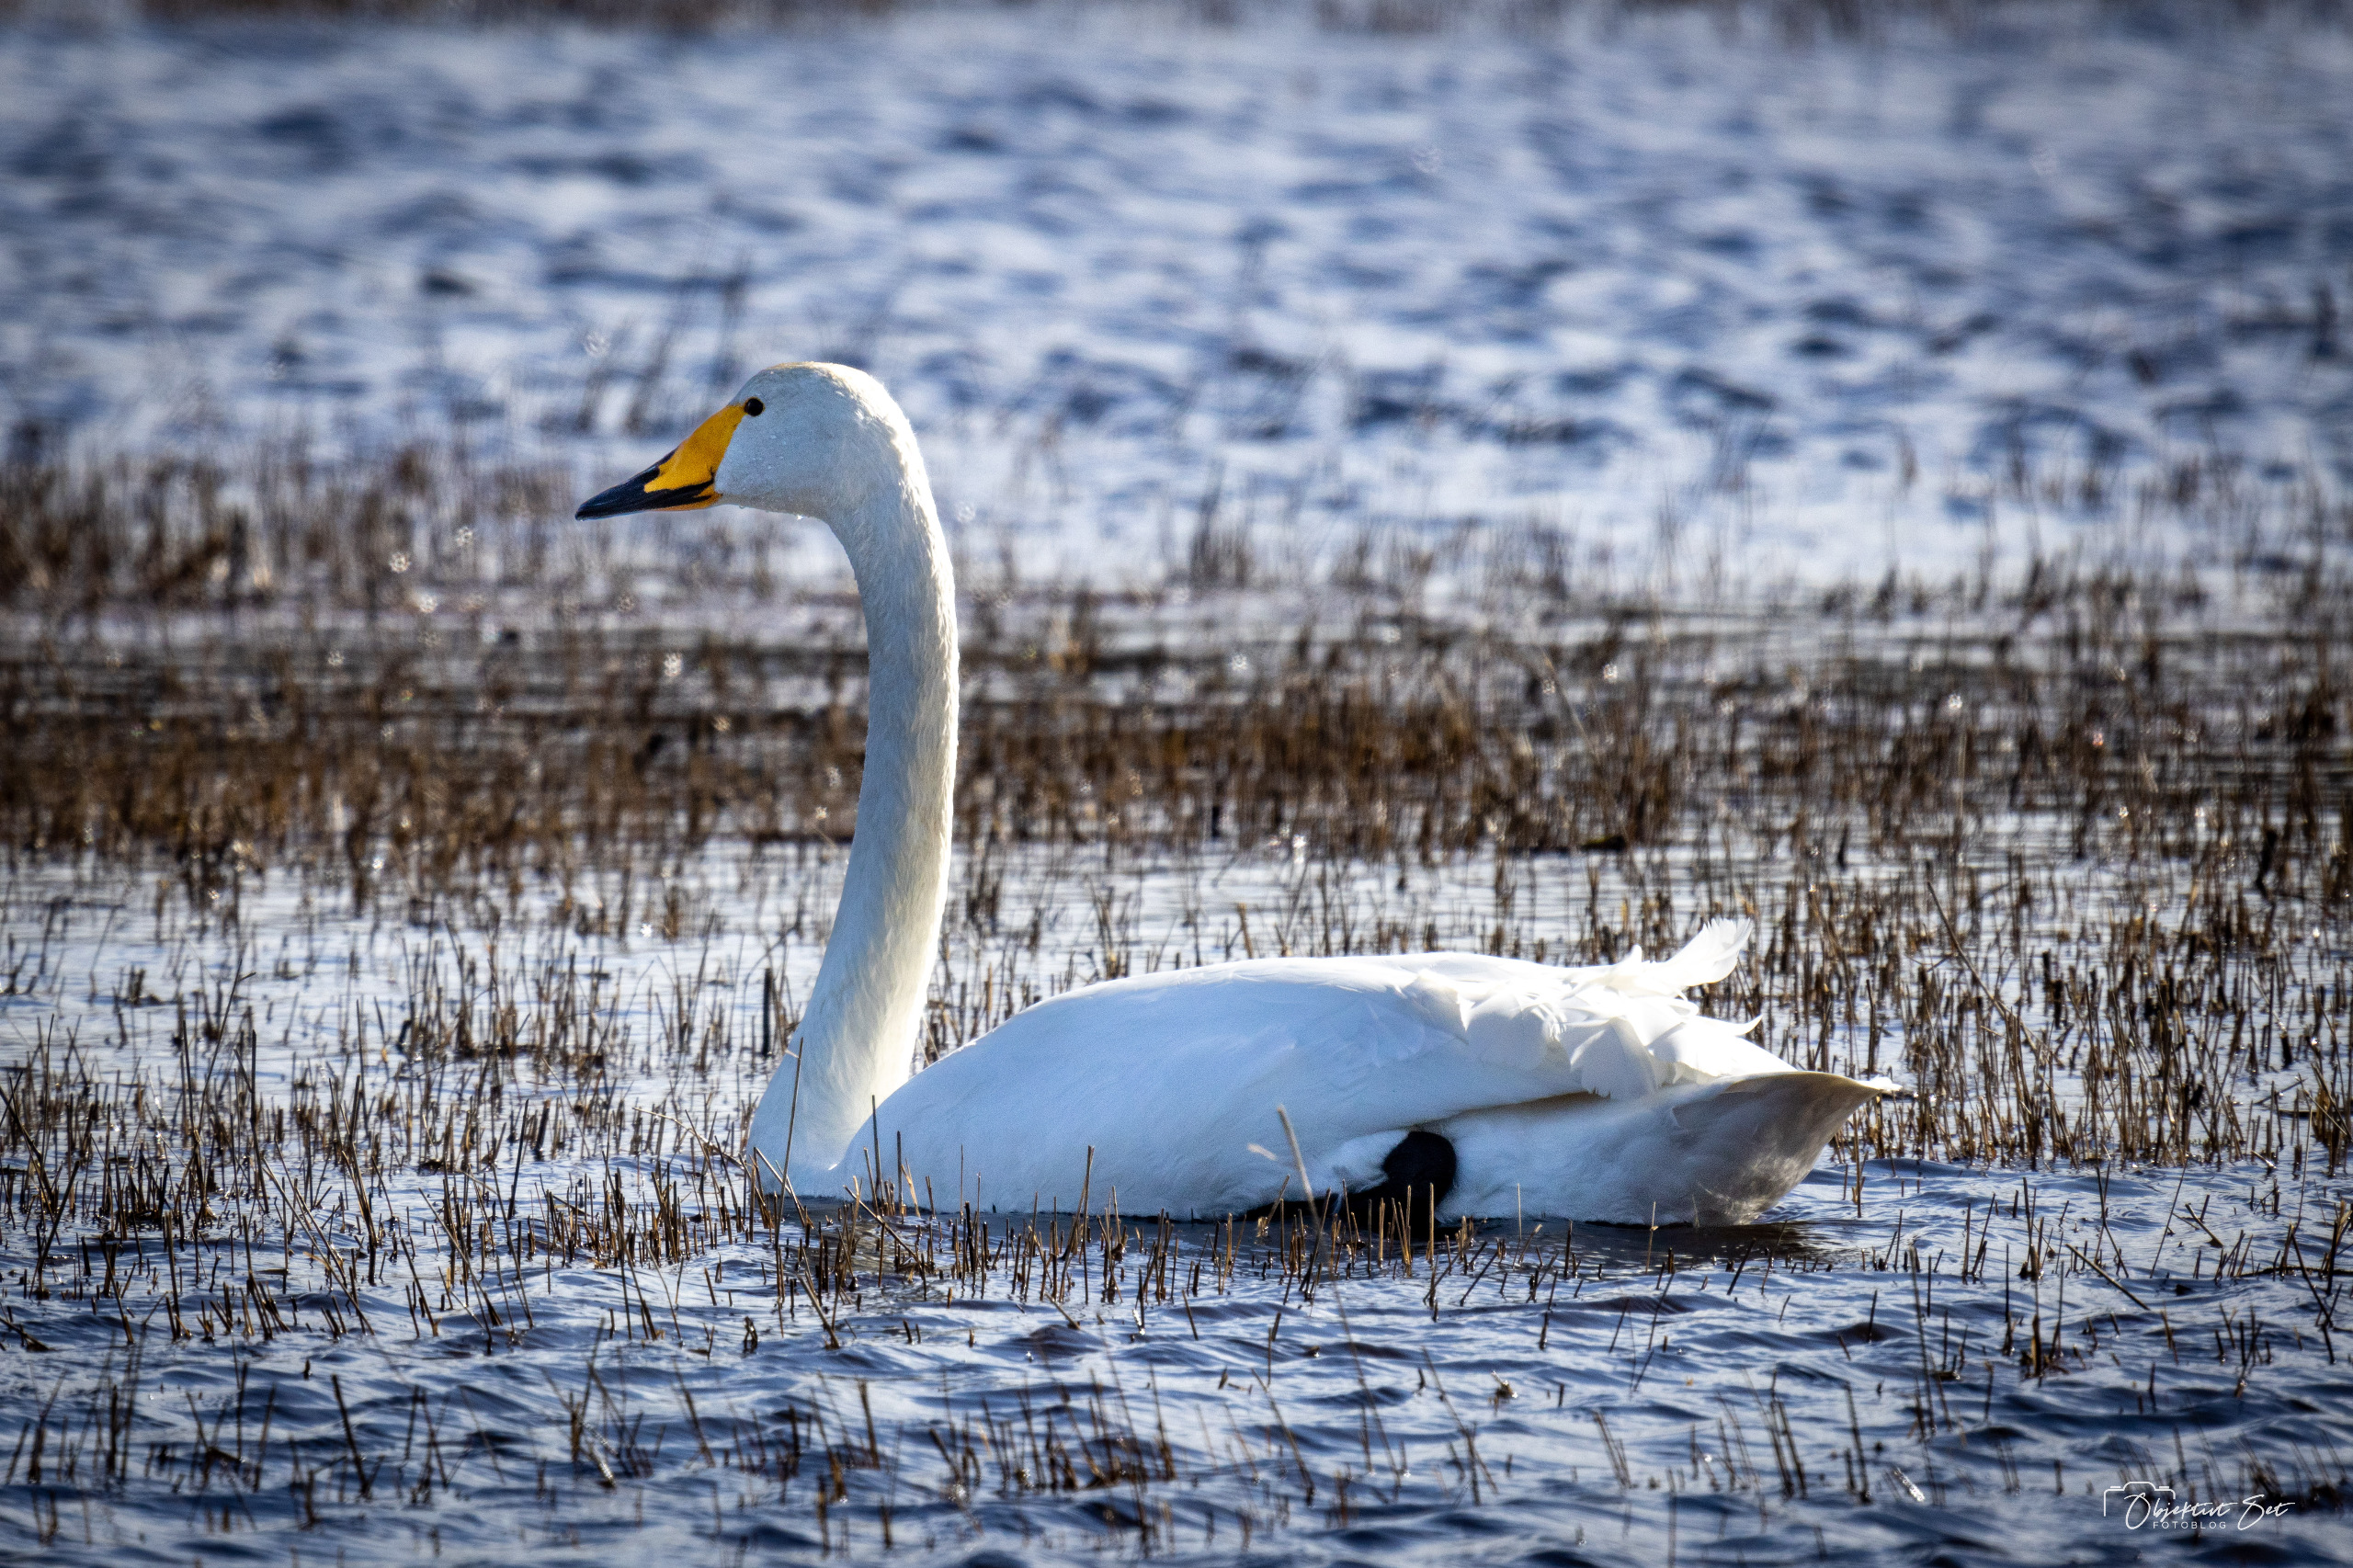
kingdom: Animalia
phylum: Chordata
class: Aves
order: Anseriformes
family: Anatidae
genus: Cygnus
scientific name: Cygnus cygnus
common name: Sangsvane
